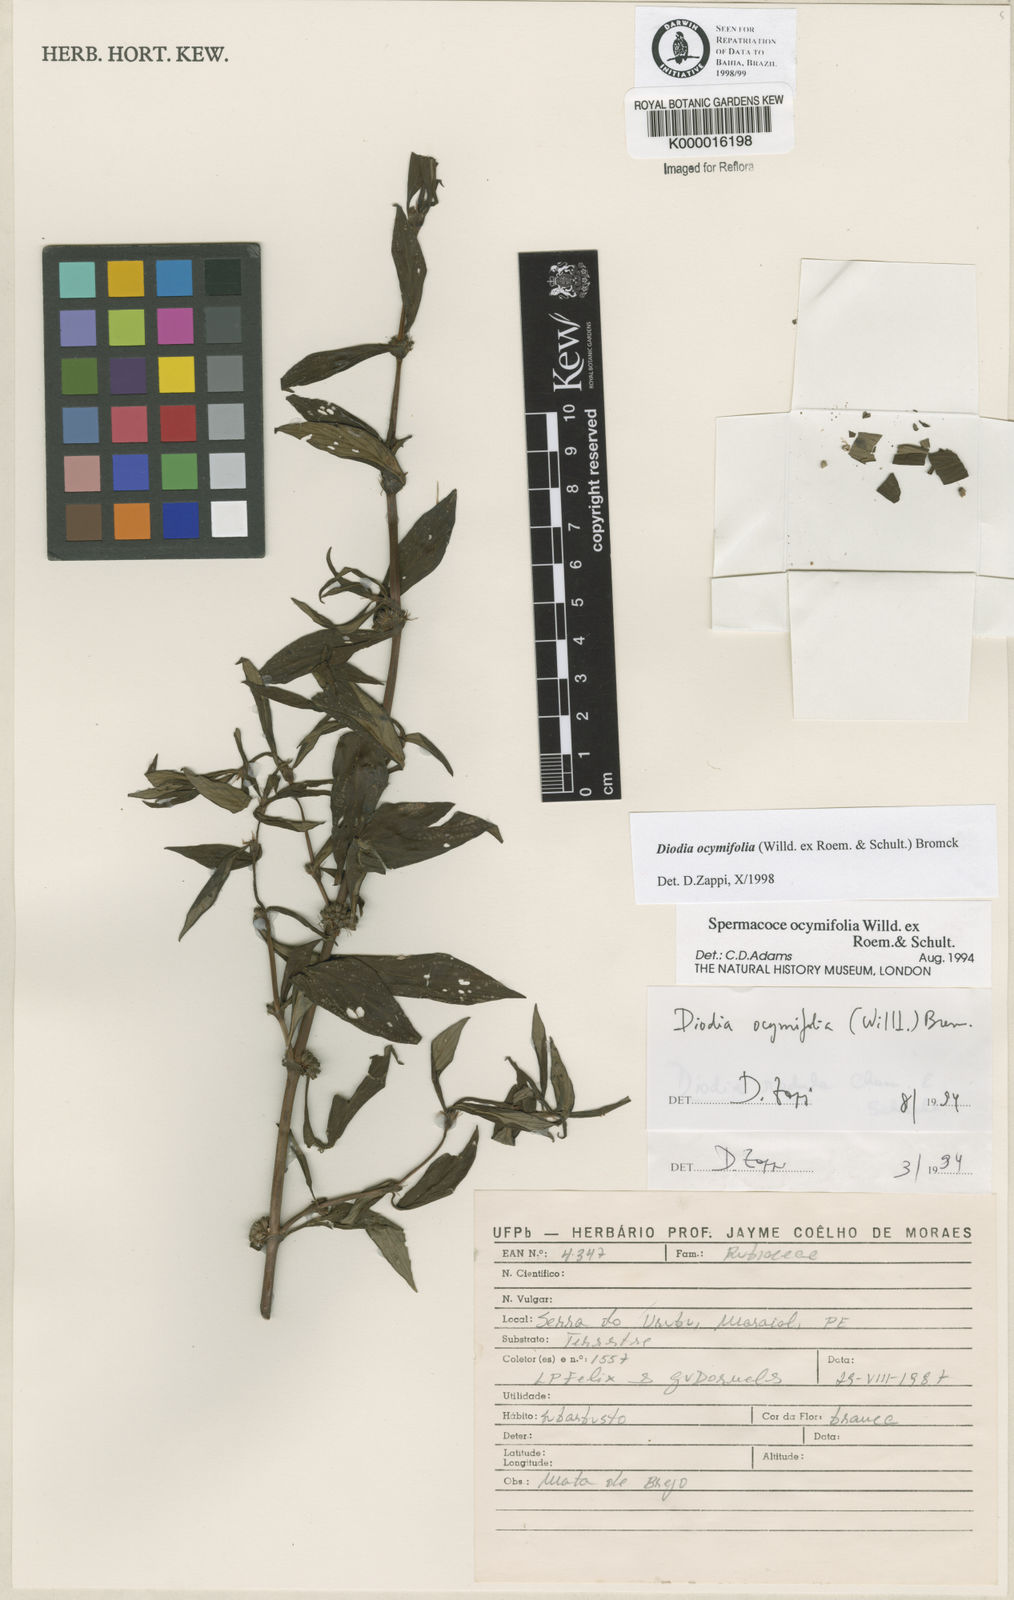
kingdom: Plantae
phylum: Tracheophyta
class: Magnoliopsida
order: Gentianales
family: Rubiaceae
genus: Spermacoce
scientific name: Spermacoce ocymifolia
